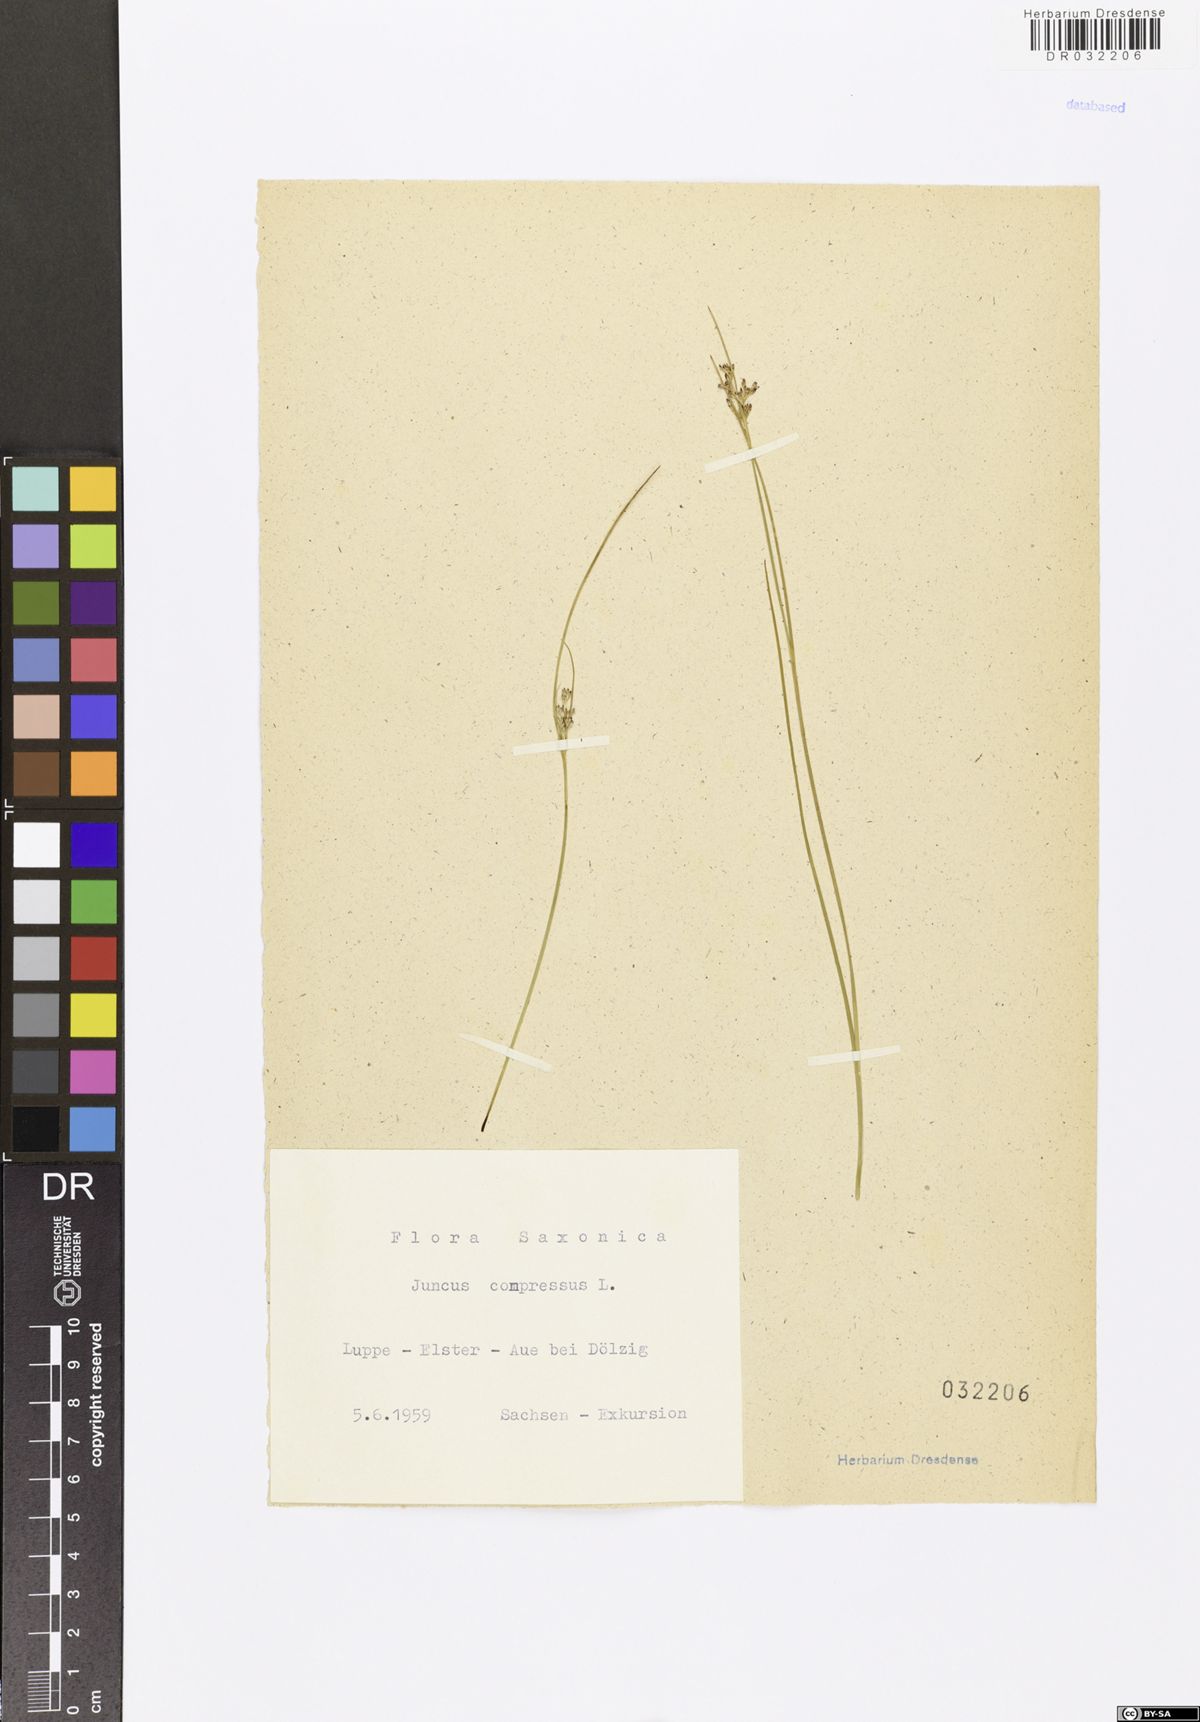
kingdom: Plantae
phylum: Tracheophyta
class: Liliopsida
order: Poales
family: Juncaceae
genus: Juncus
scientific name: Juncus compressus
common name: Round-fruited rush
